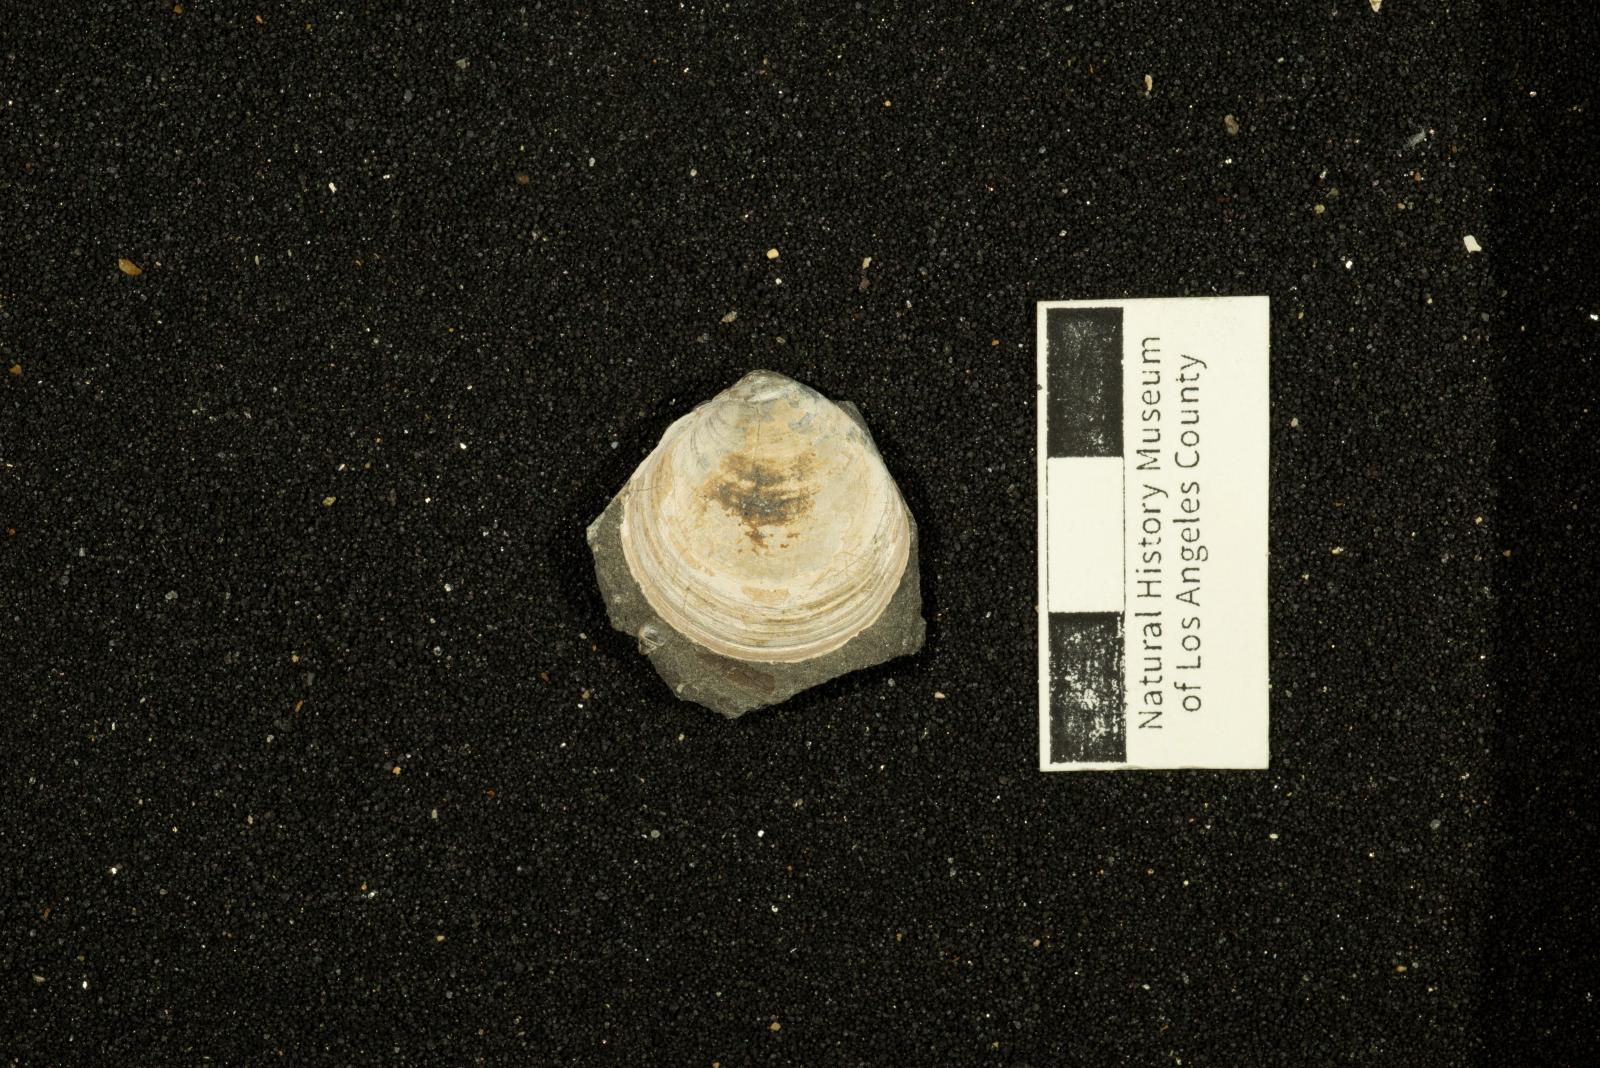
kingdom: Animalia
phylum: Mollusca
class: Bivalvia
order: Venerida
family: Arcticidae
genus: Tenea
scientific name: Tenea
